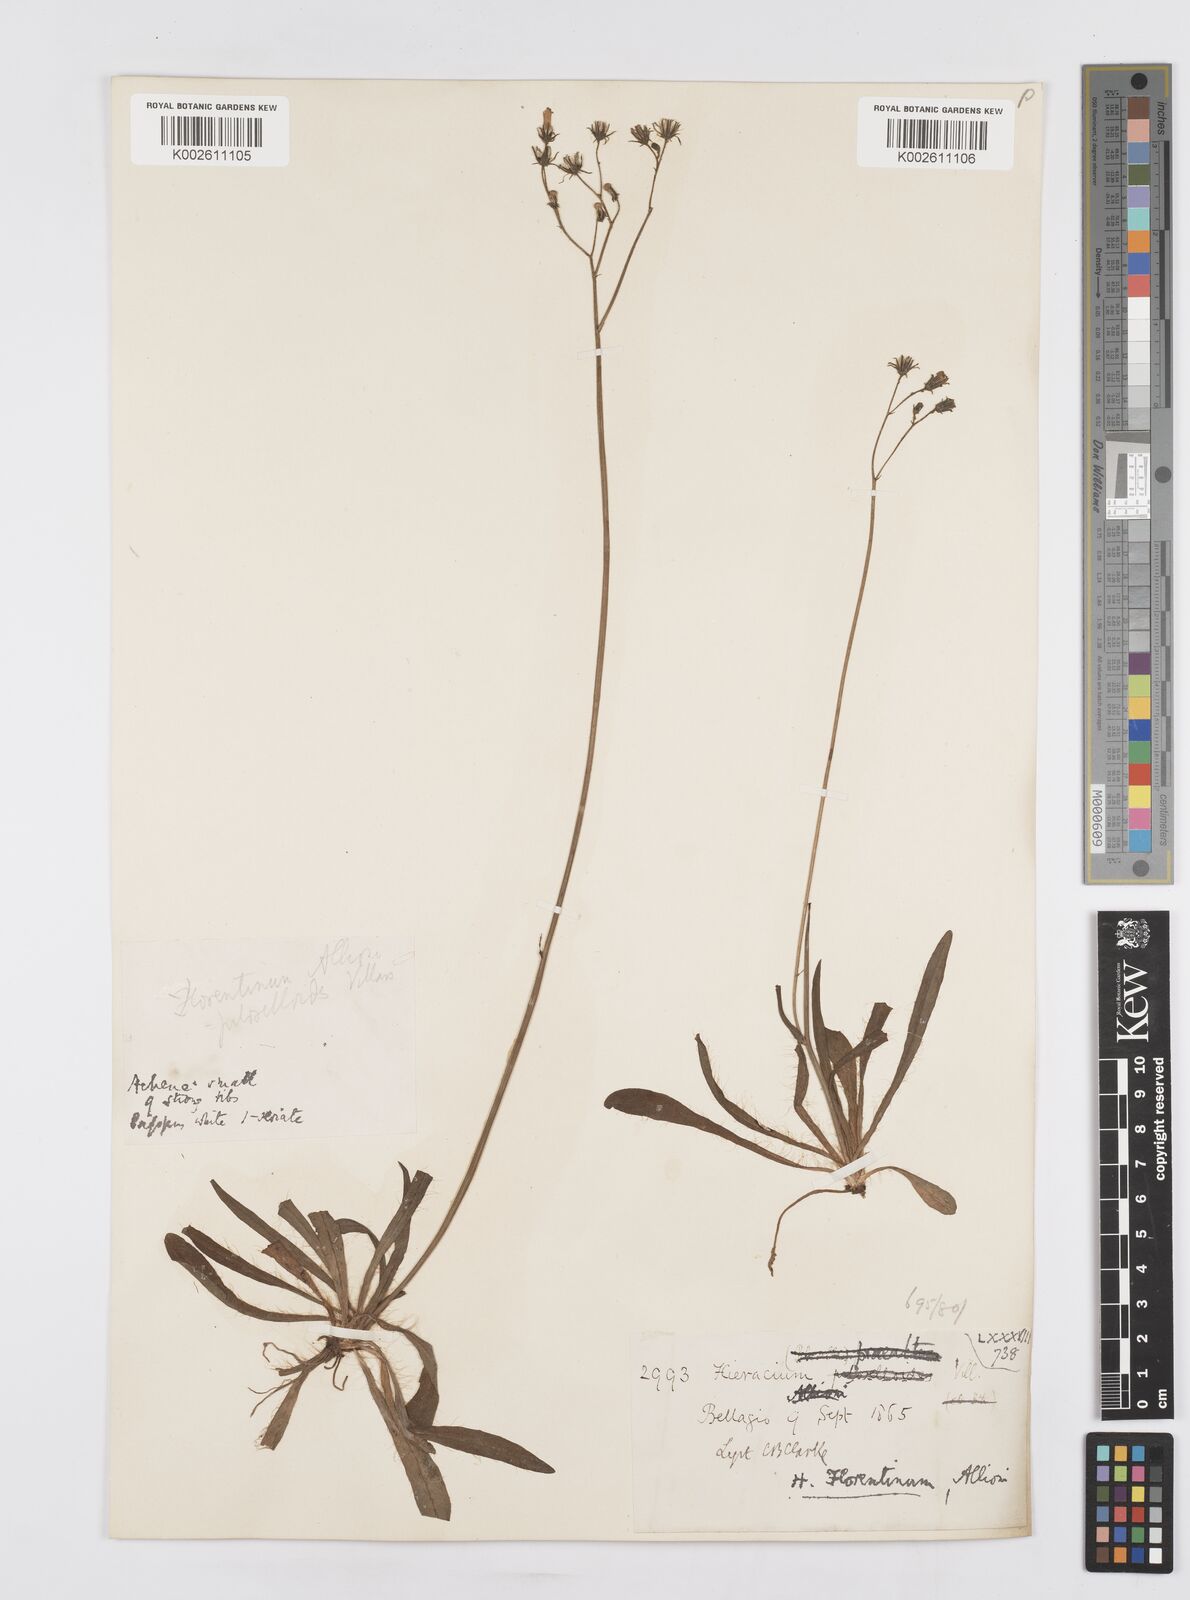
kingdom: Plantae
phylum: Tracheophyta
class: Magnoliopsida
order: Asterales
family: Asteraceae
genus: Pilosella
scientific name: Pilosella piloselloides
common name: Glaucous king-devil
